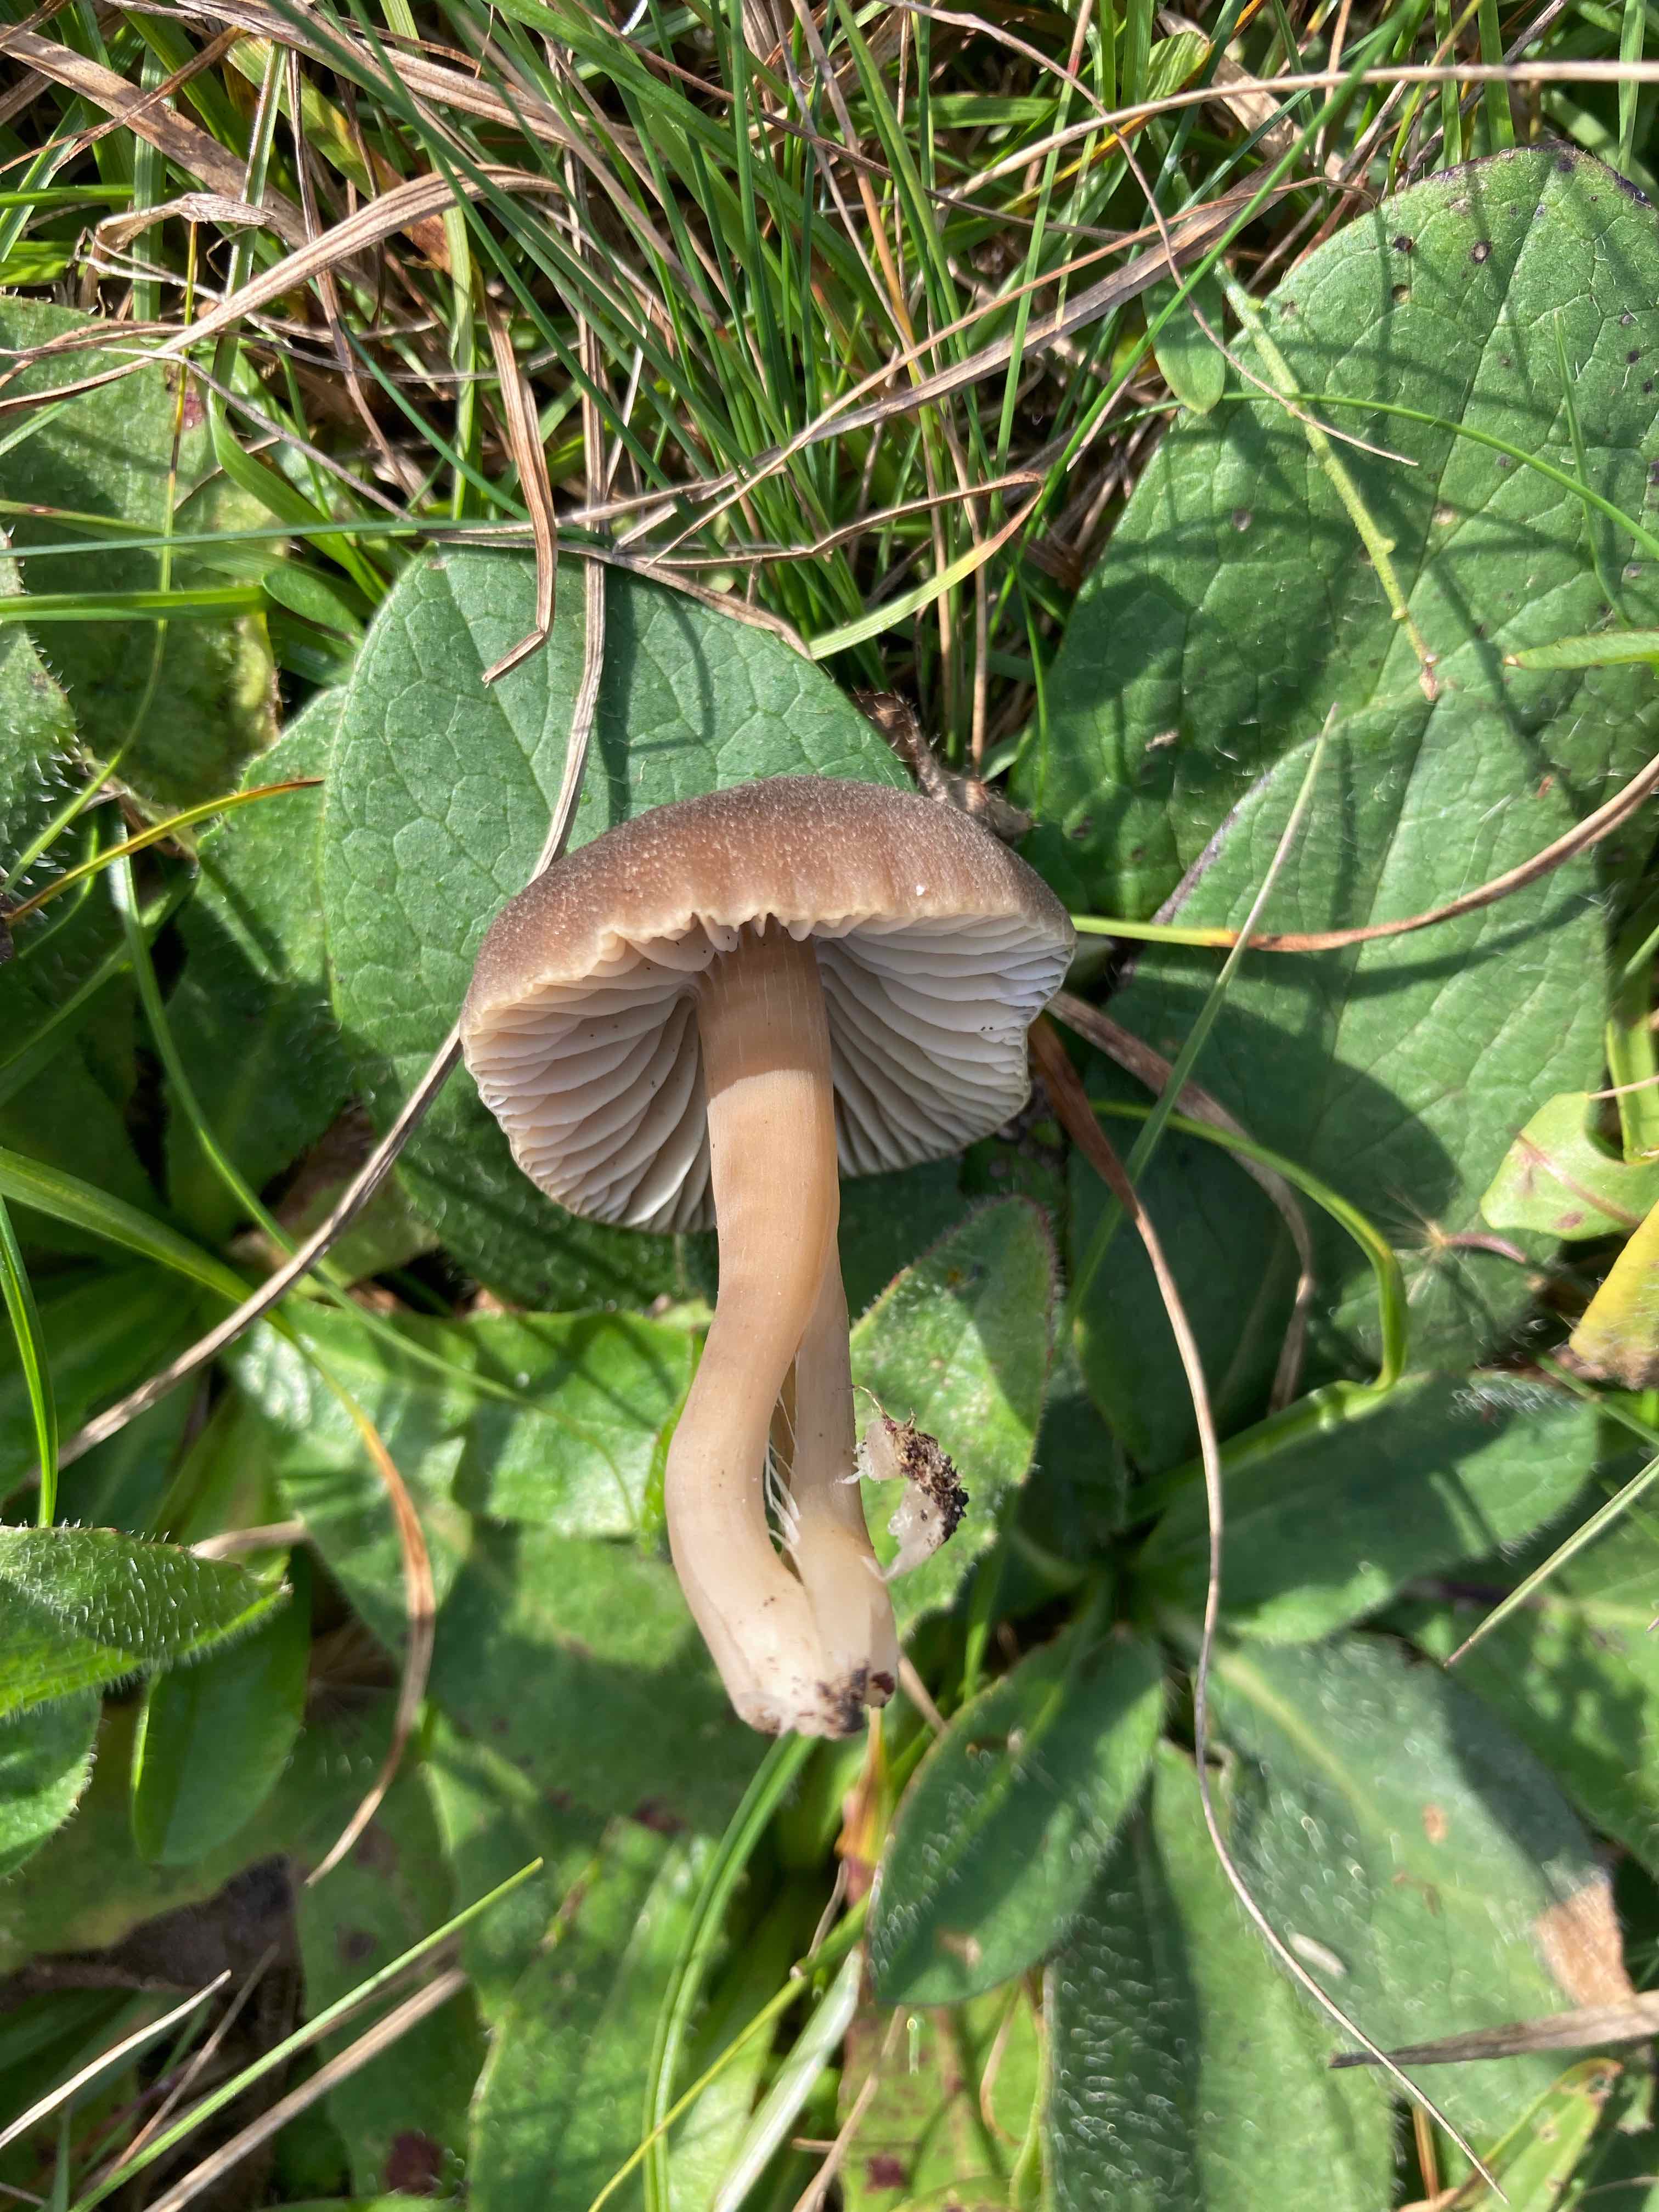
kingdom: Fungi
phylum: Basidiomycota
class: Agaricomycetes
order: Agaricales
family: Hygrophoraceae
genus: Neohygrocybe
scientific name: Neohygrocybe nitrata
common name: stinkende vokshat
